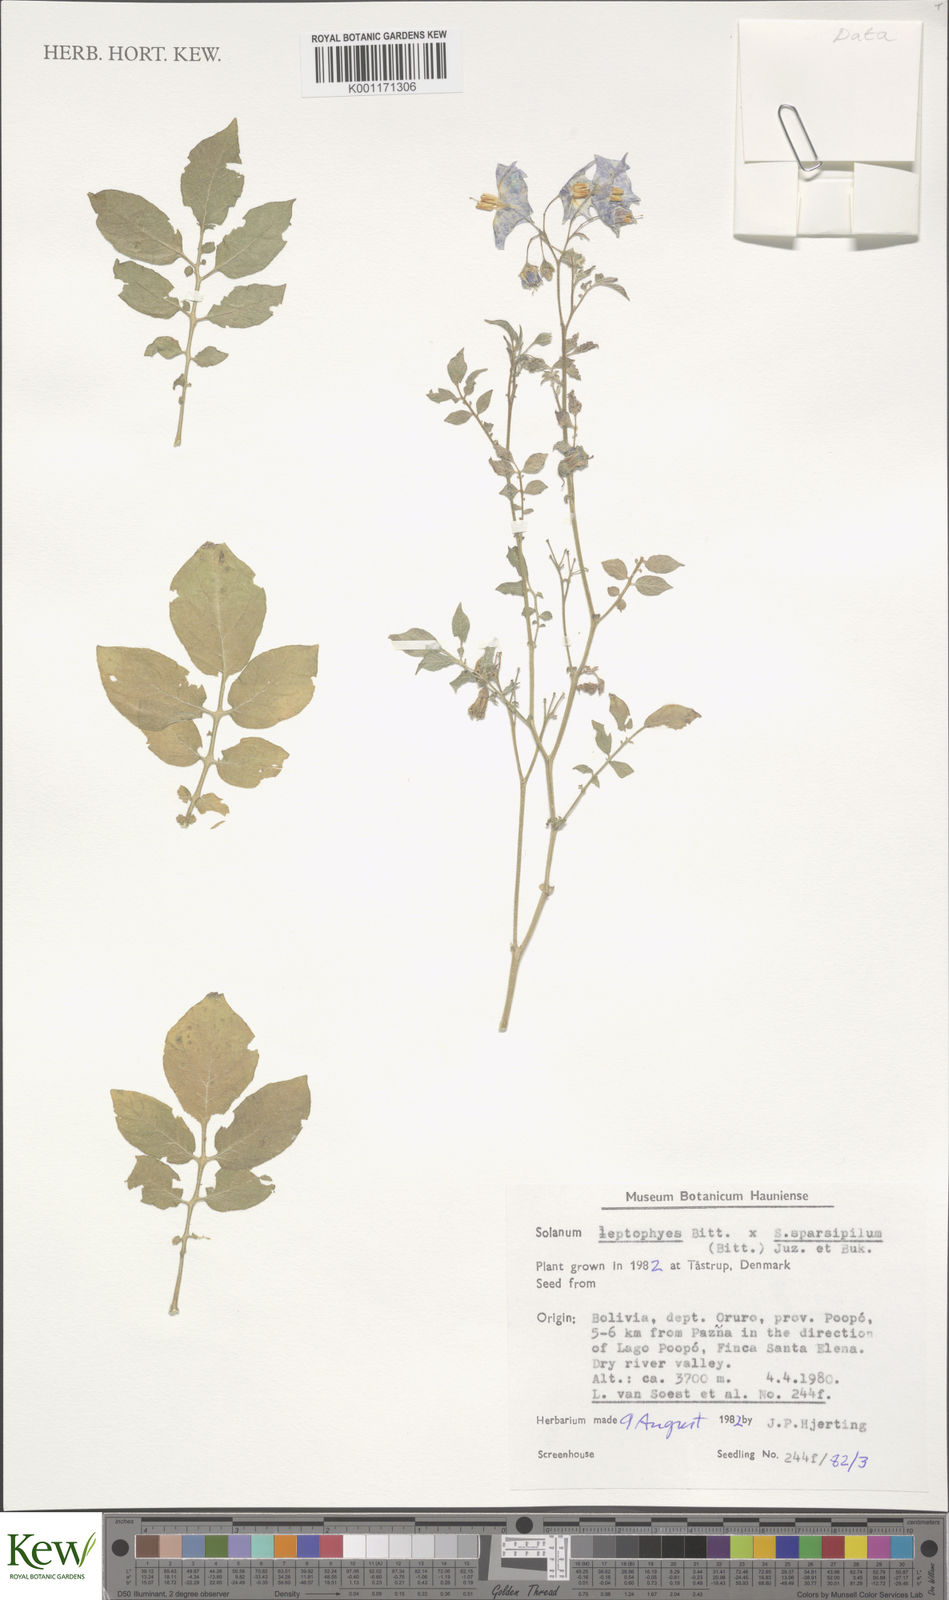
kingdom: Plantae
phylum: Tracheophyta
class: Magnoliopsida
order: Solanales
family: Solanaceae
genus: Solanum
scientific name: Solanum brevicaule
